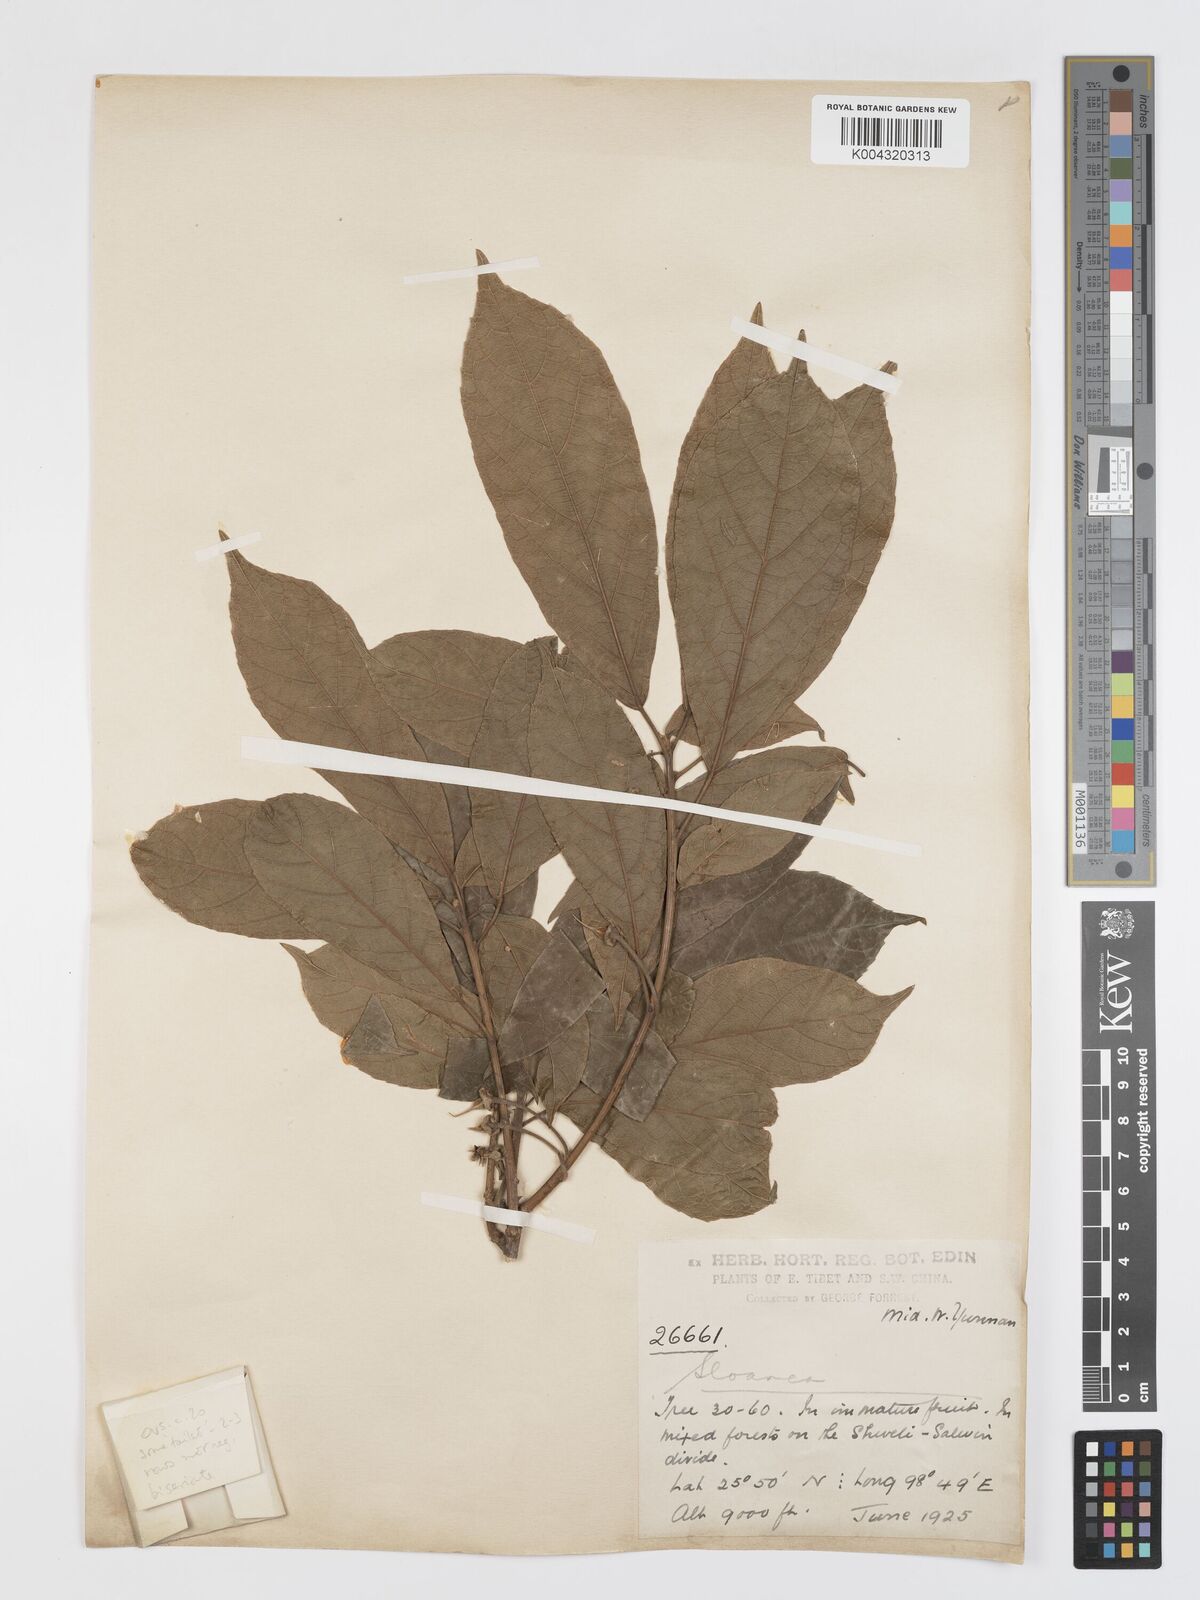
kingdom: Plantae
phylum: Tracheophyta
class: Magnoliopsida
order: Oxalidales
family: Elaeocarpaceae
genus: Sloanea
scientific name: Sloanea sterculiacea
